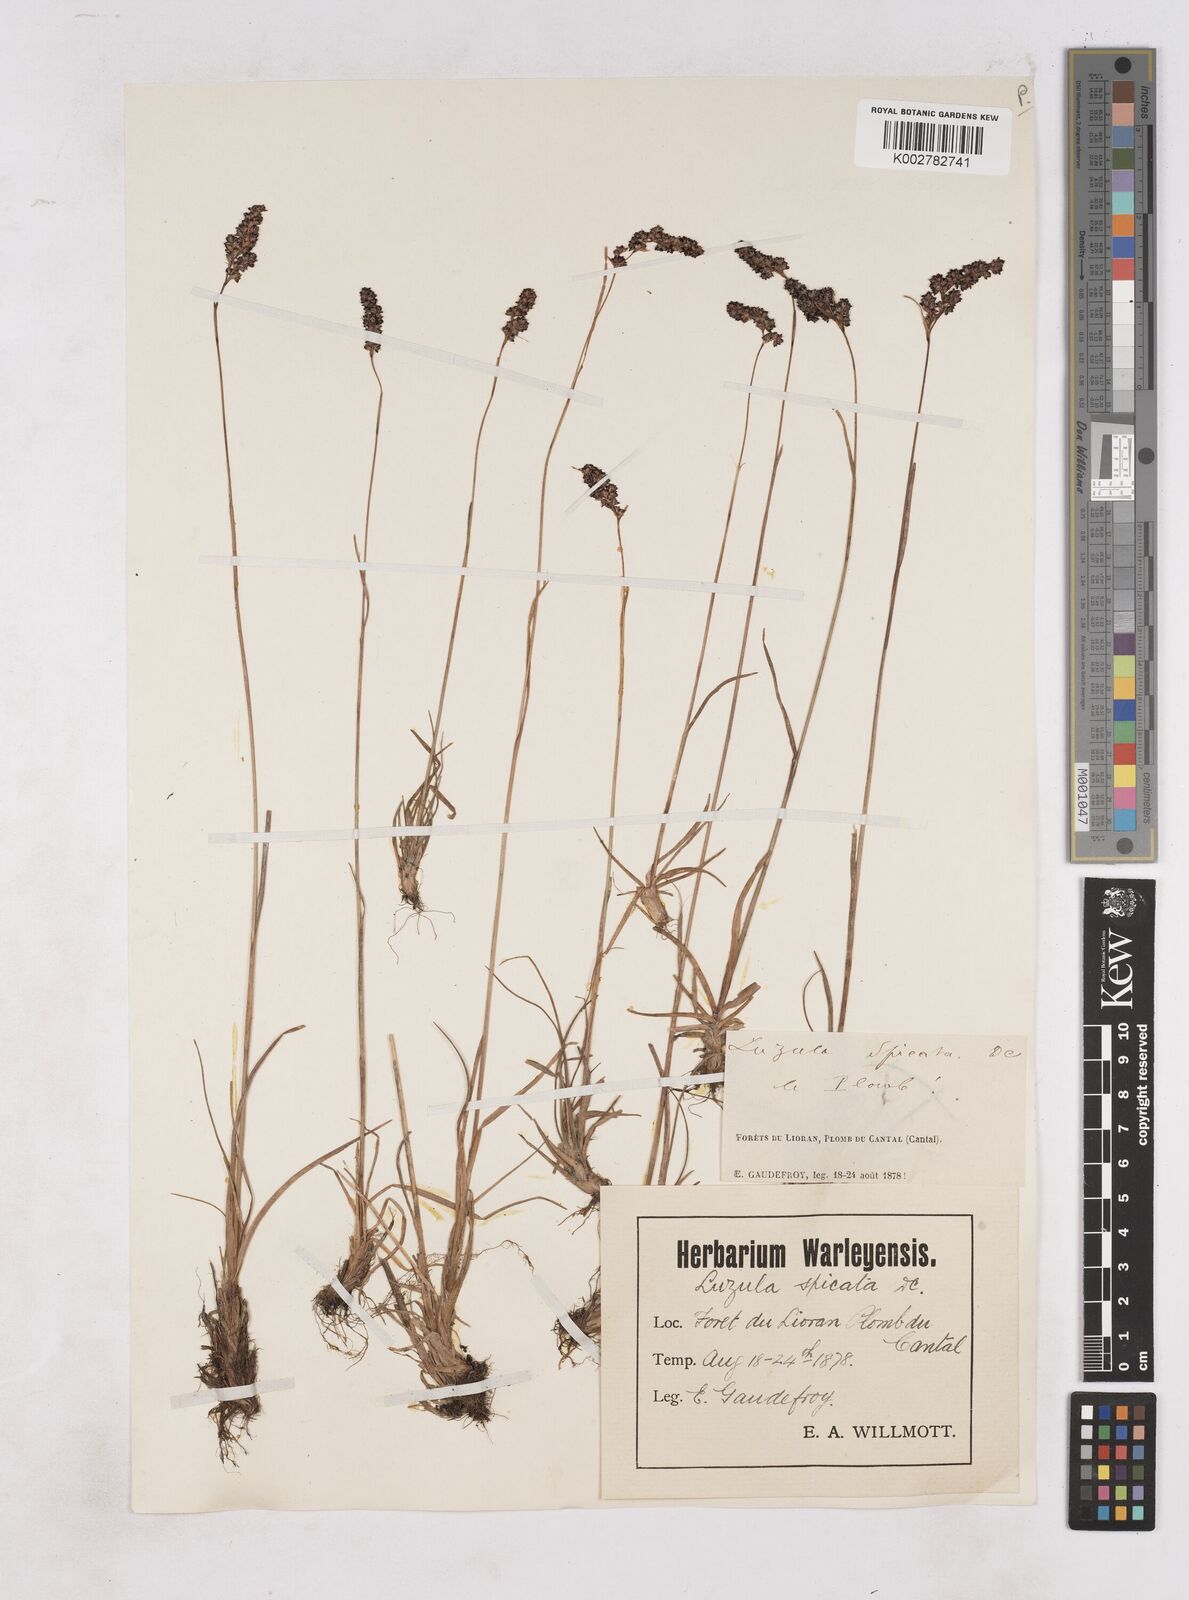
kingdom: Plantae
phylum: Tracheophyta
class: Liliopsida
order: Poales
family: Juncaceae
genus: Luzula
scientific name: Luzula spicata
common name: Spiked wood-rush
